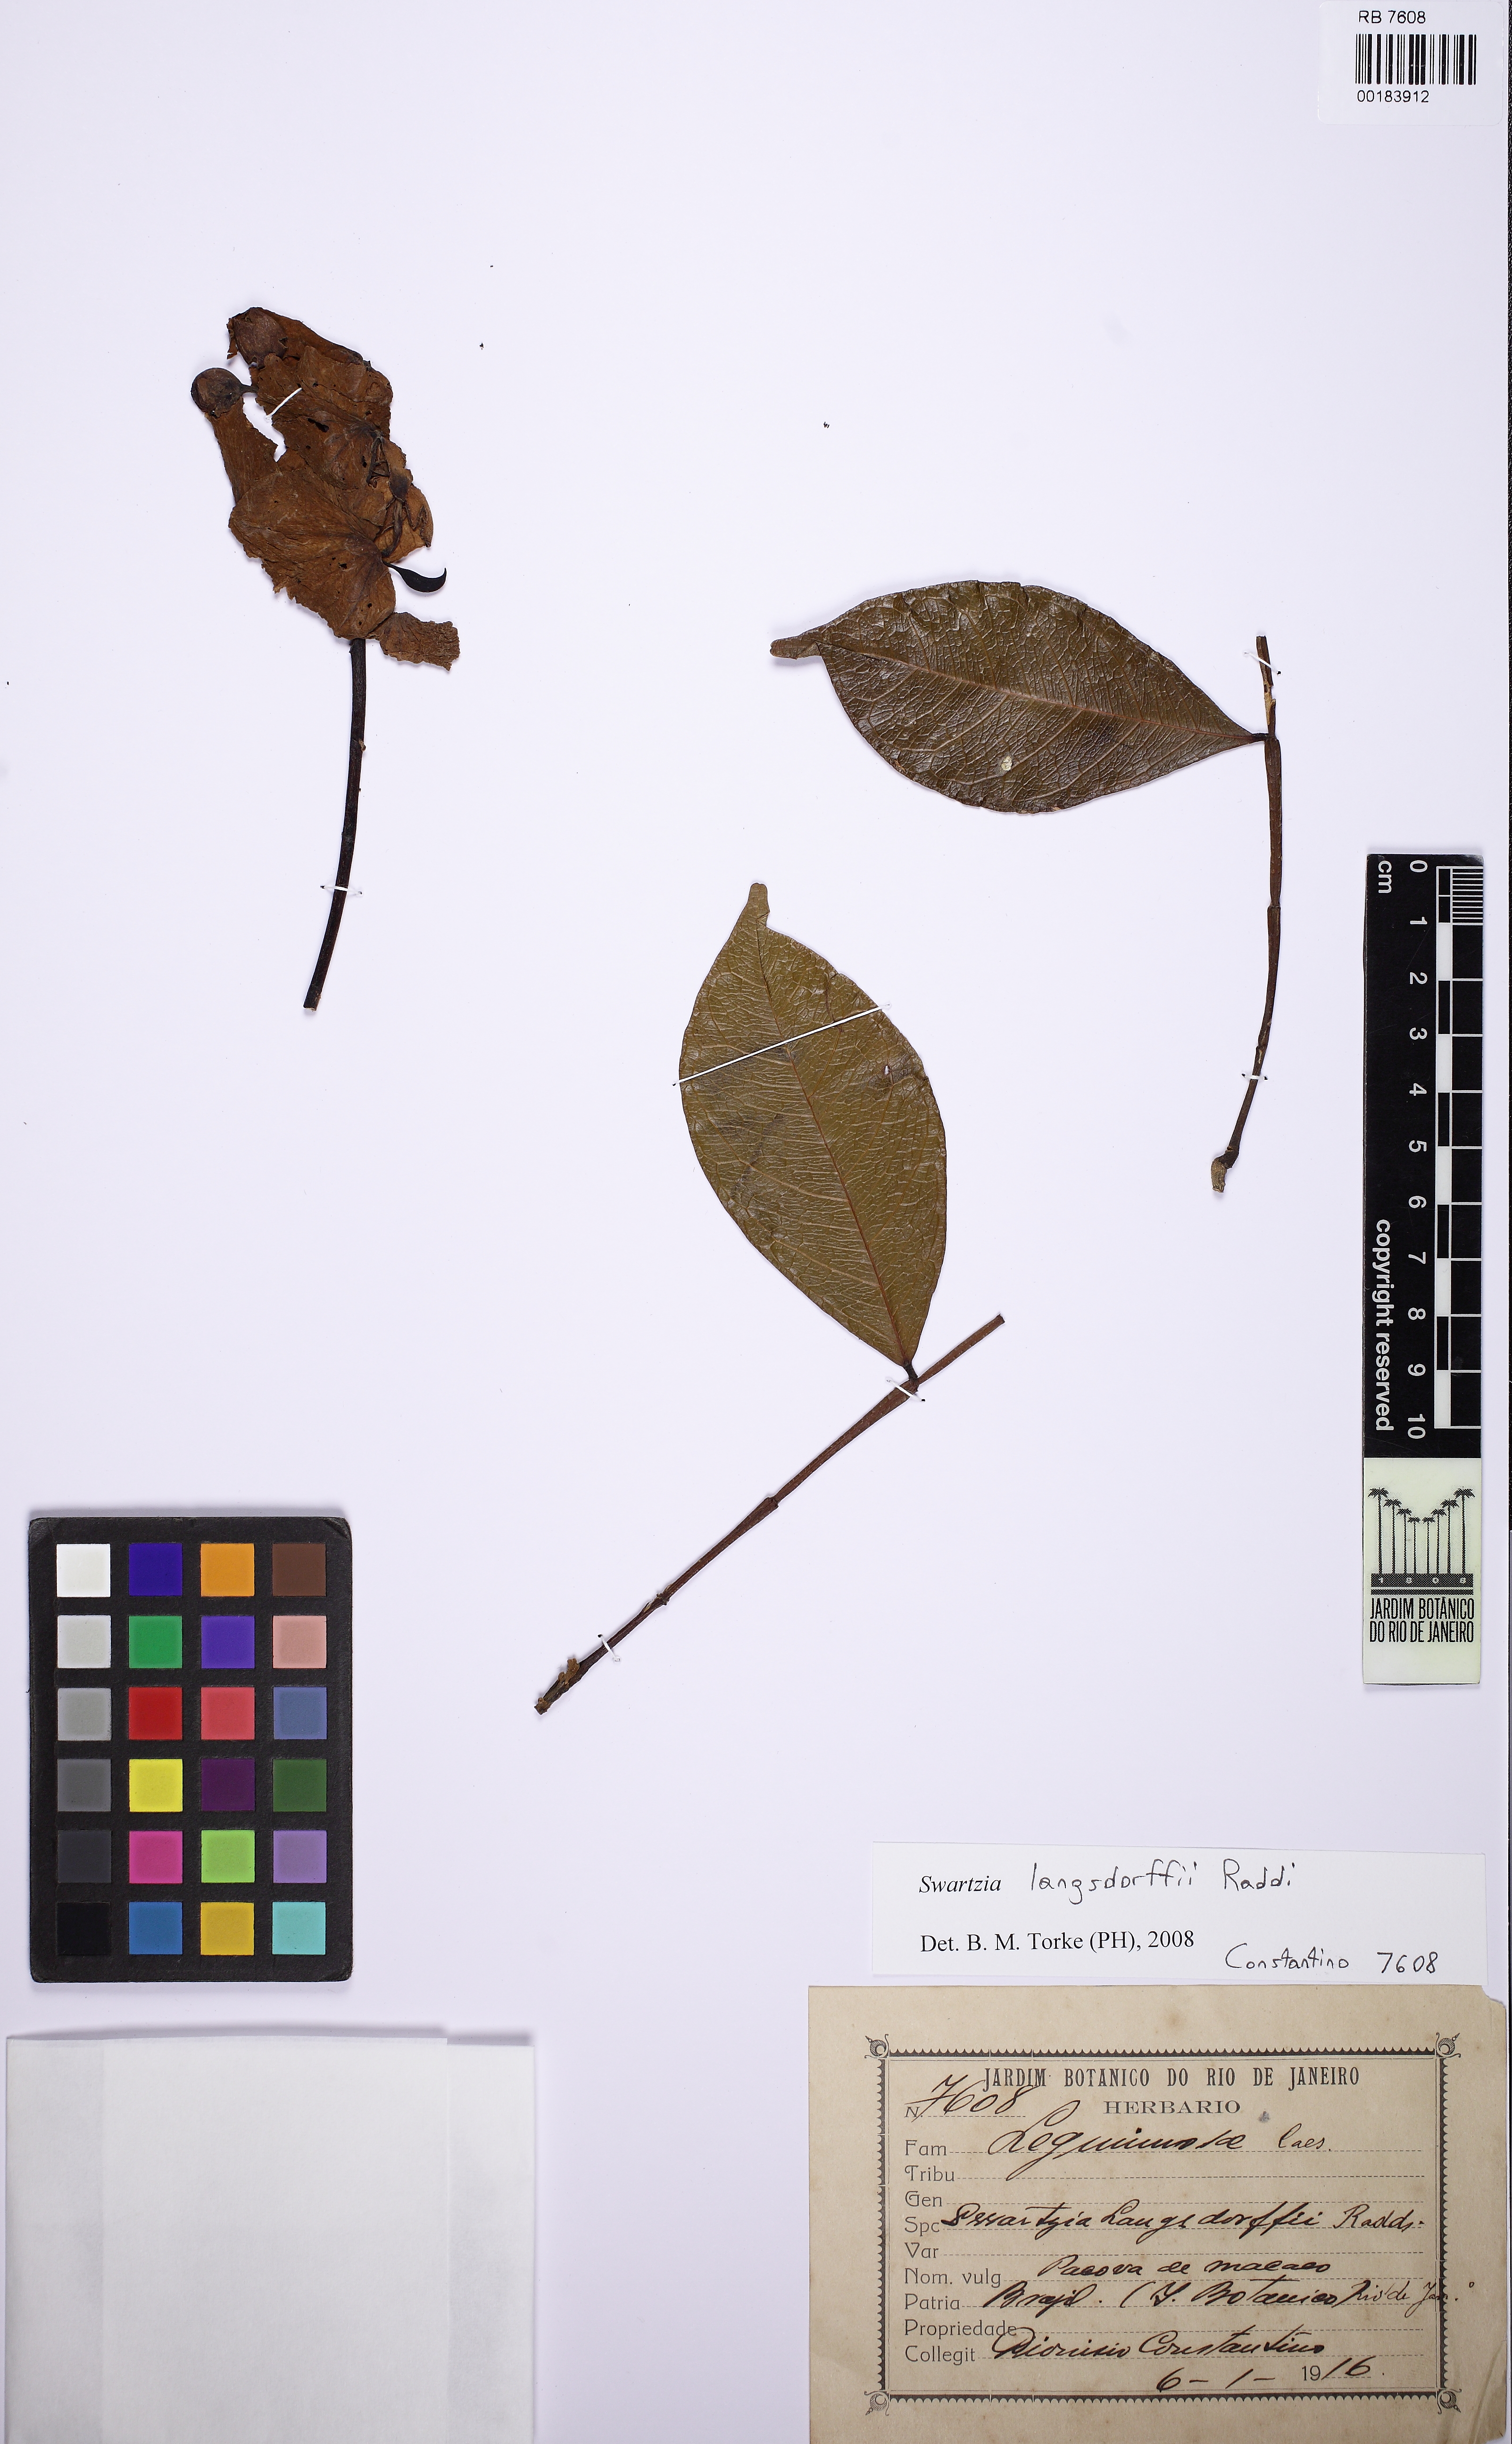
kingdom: Plantae
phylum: Tracheophyta
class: Magnoliopsida
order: Fabales
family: Fabaceae
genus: Swartzia
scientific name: Swartzia langsdorffii
